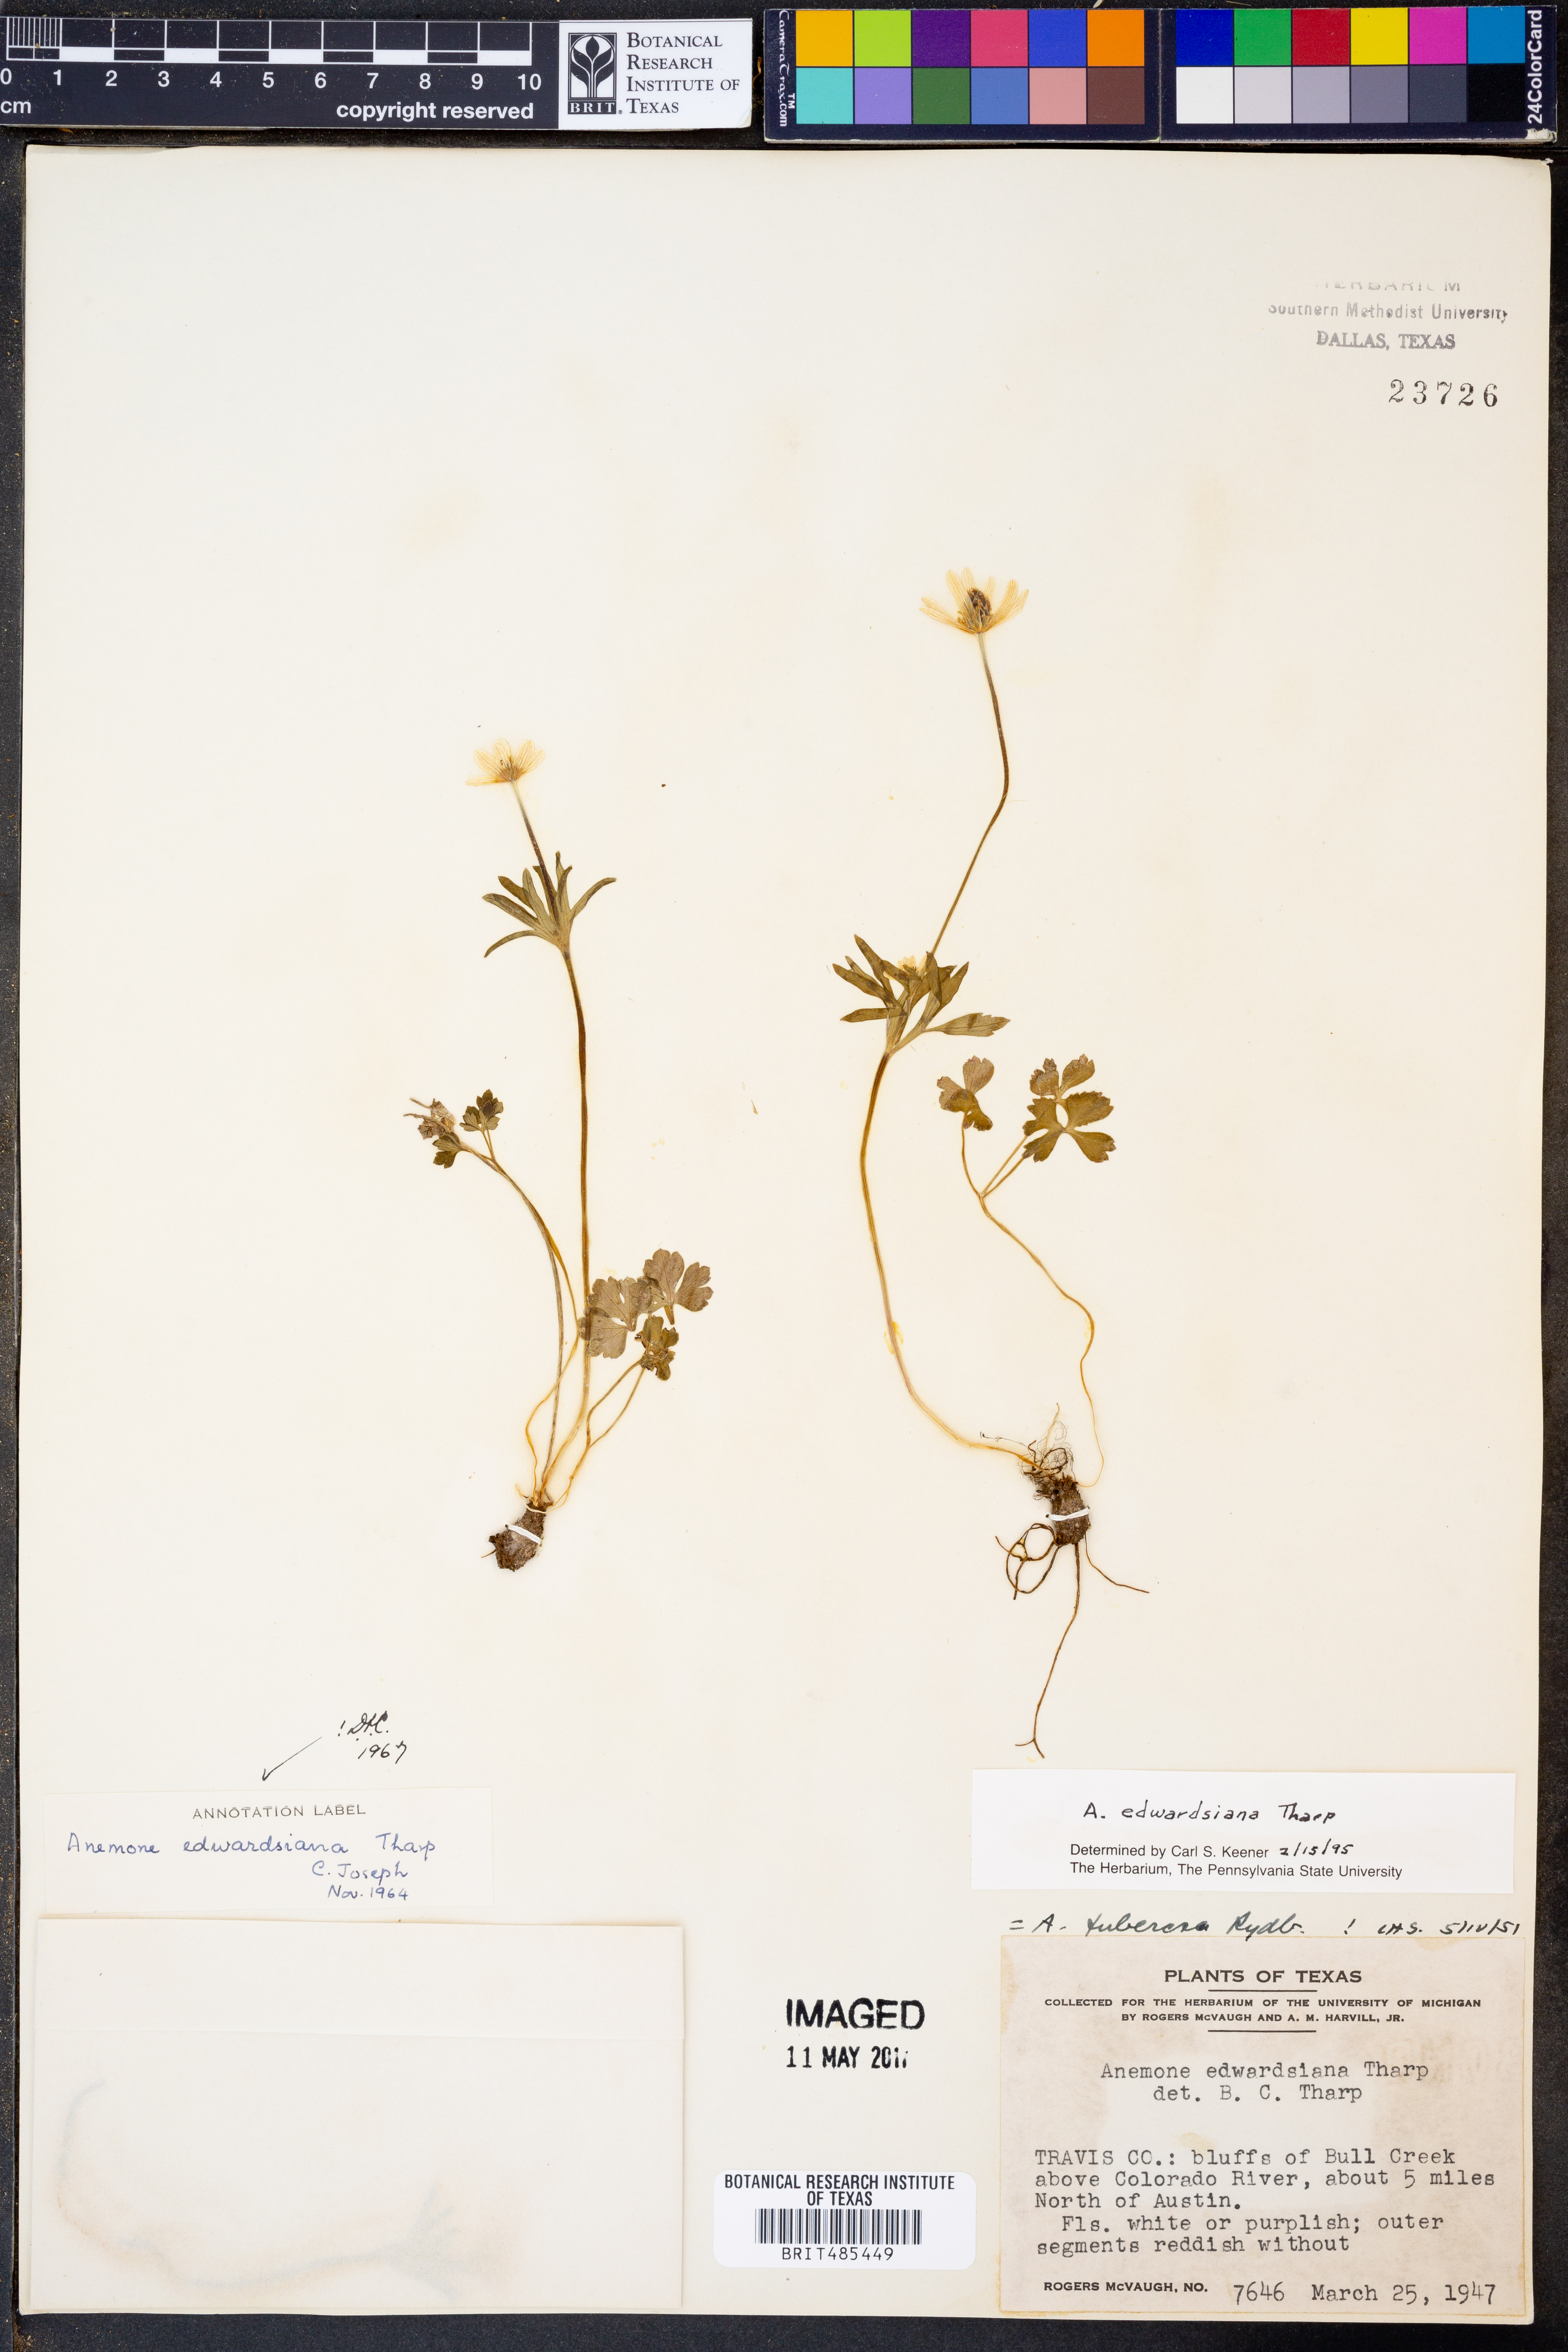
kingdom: Plantae
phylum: Tracheophyta
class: Magnoliopsida
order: Ranunculales
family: Ranunculaceae
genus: Anemone
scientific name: Anemone edwardsiana
